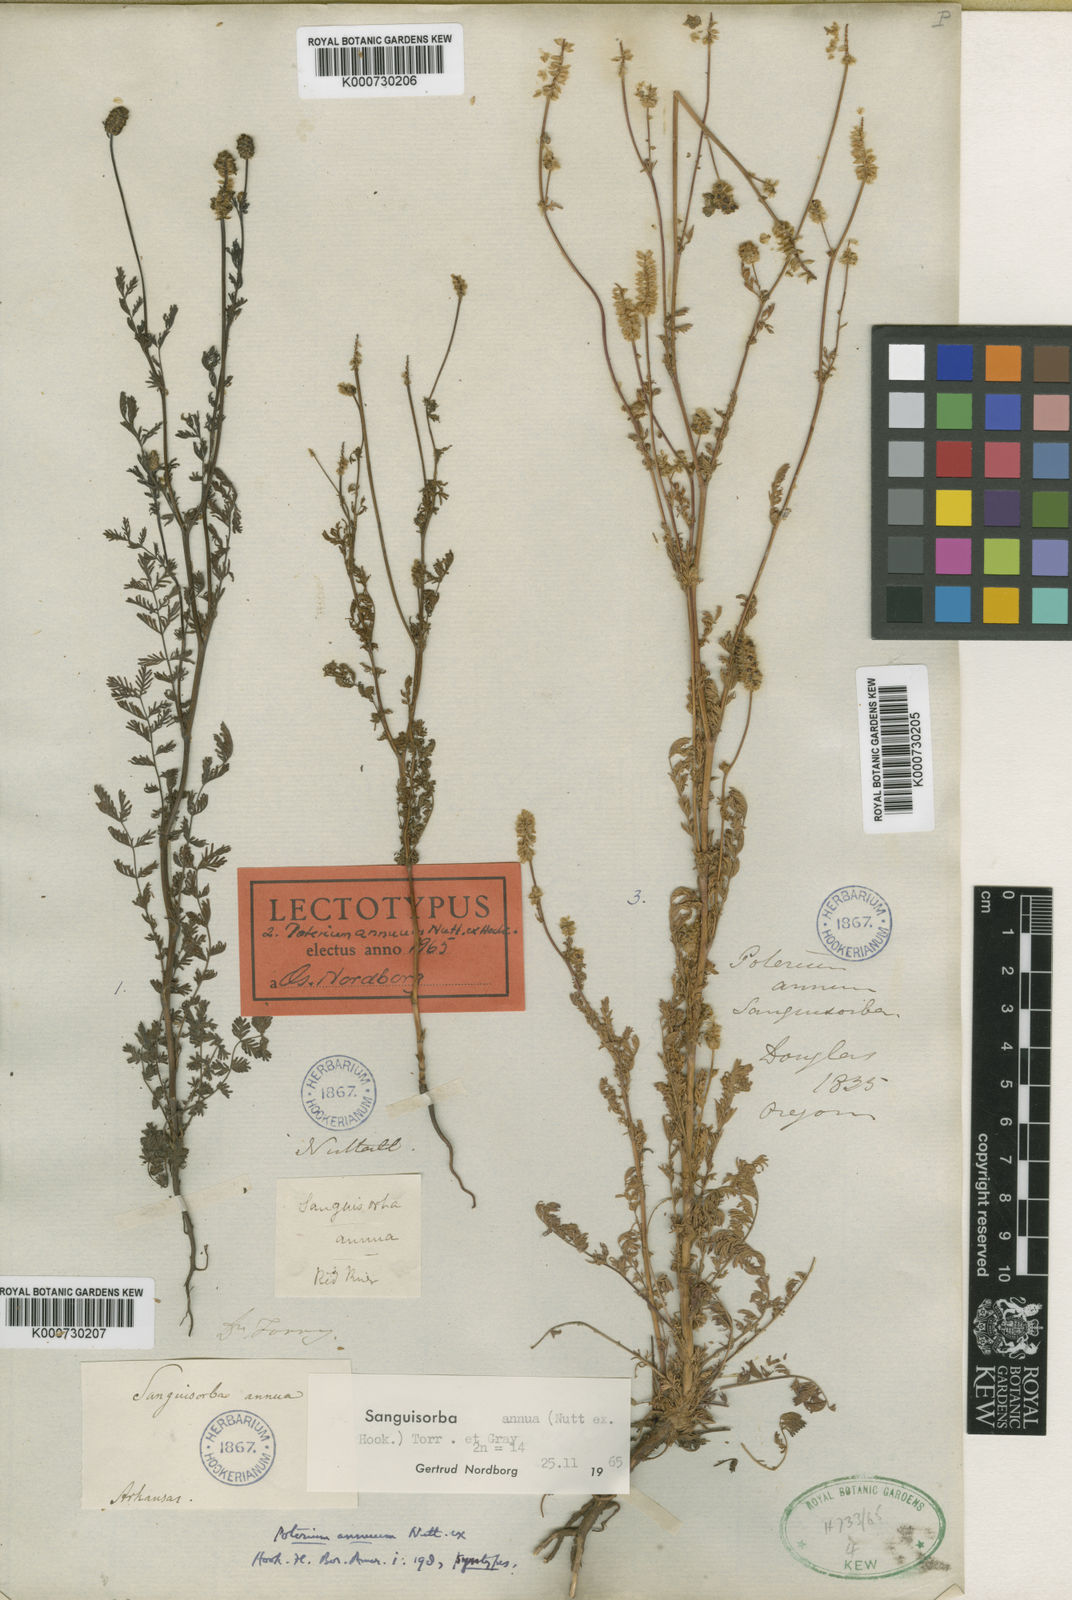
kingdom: Plantae
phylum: Tracheophyta
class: Magnoliopsida
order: Rosales
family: Rosaceae
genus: Sanguisorba
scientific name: Sanguisorba
